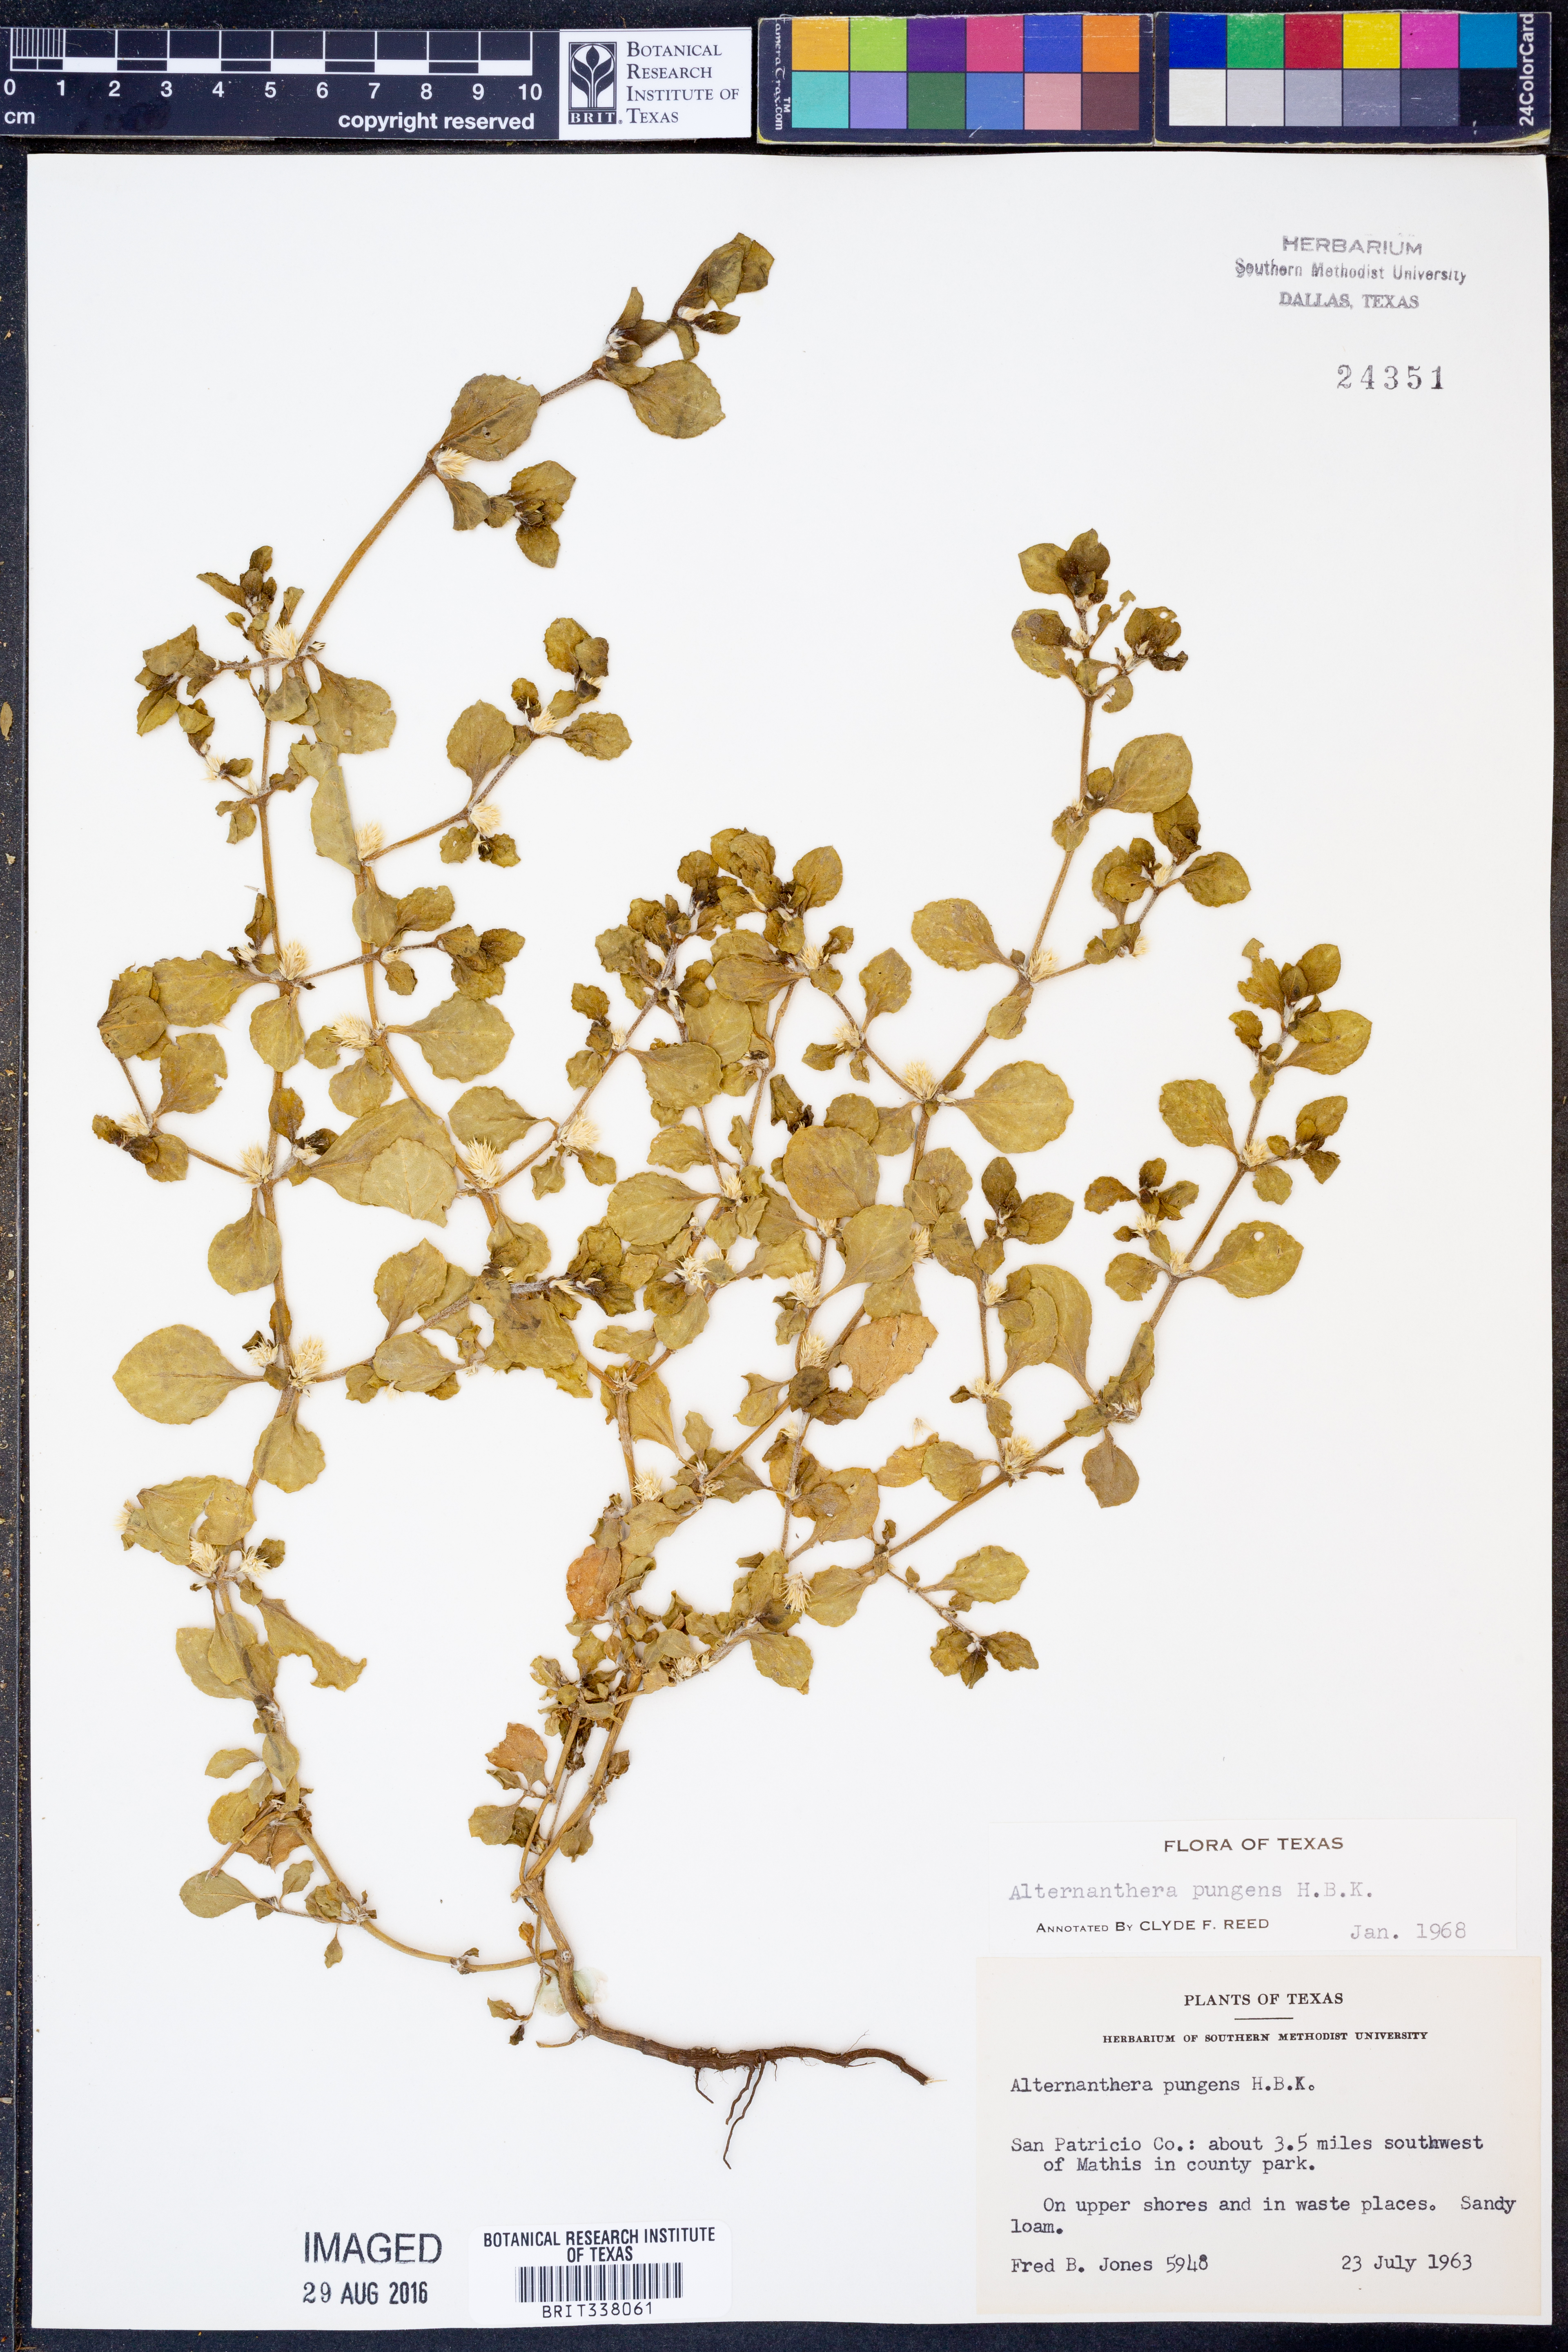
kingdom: Plantae
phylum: Tracheophyta
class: Magnoliopsida
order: Caryophyllales
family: Amaranthaceae
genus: Alternanthera
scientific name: Alternanthera pungens
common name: Khakiweed
